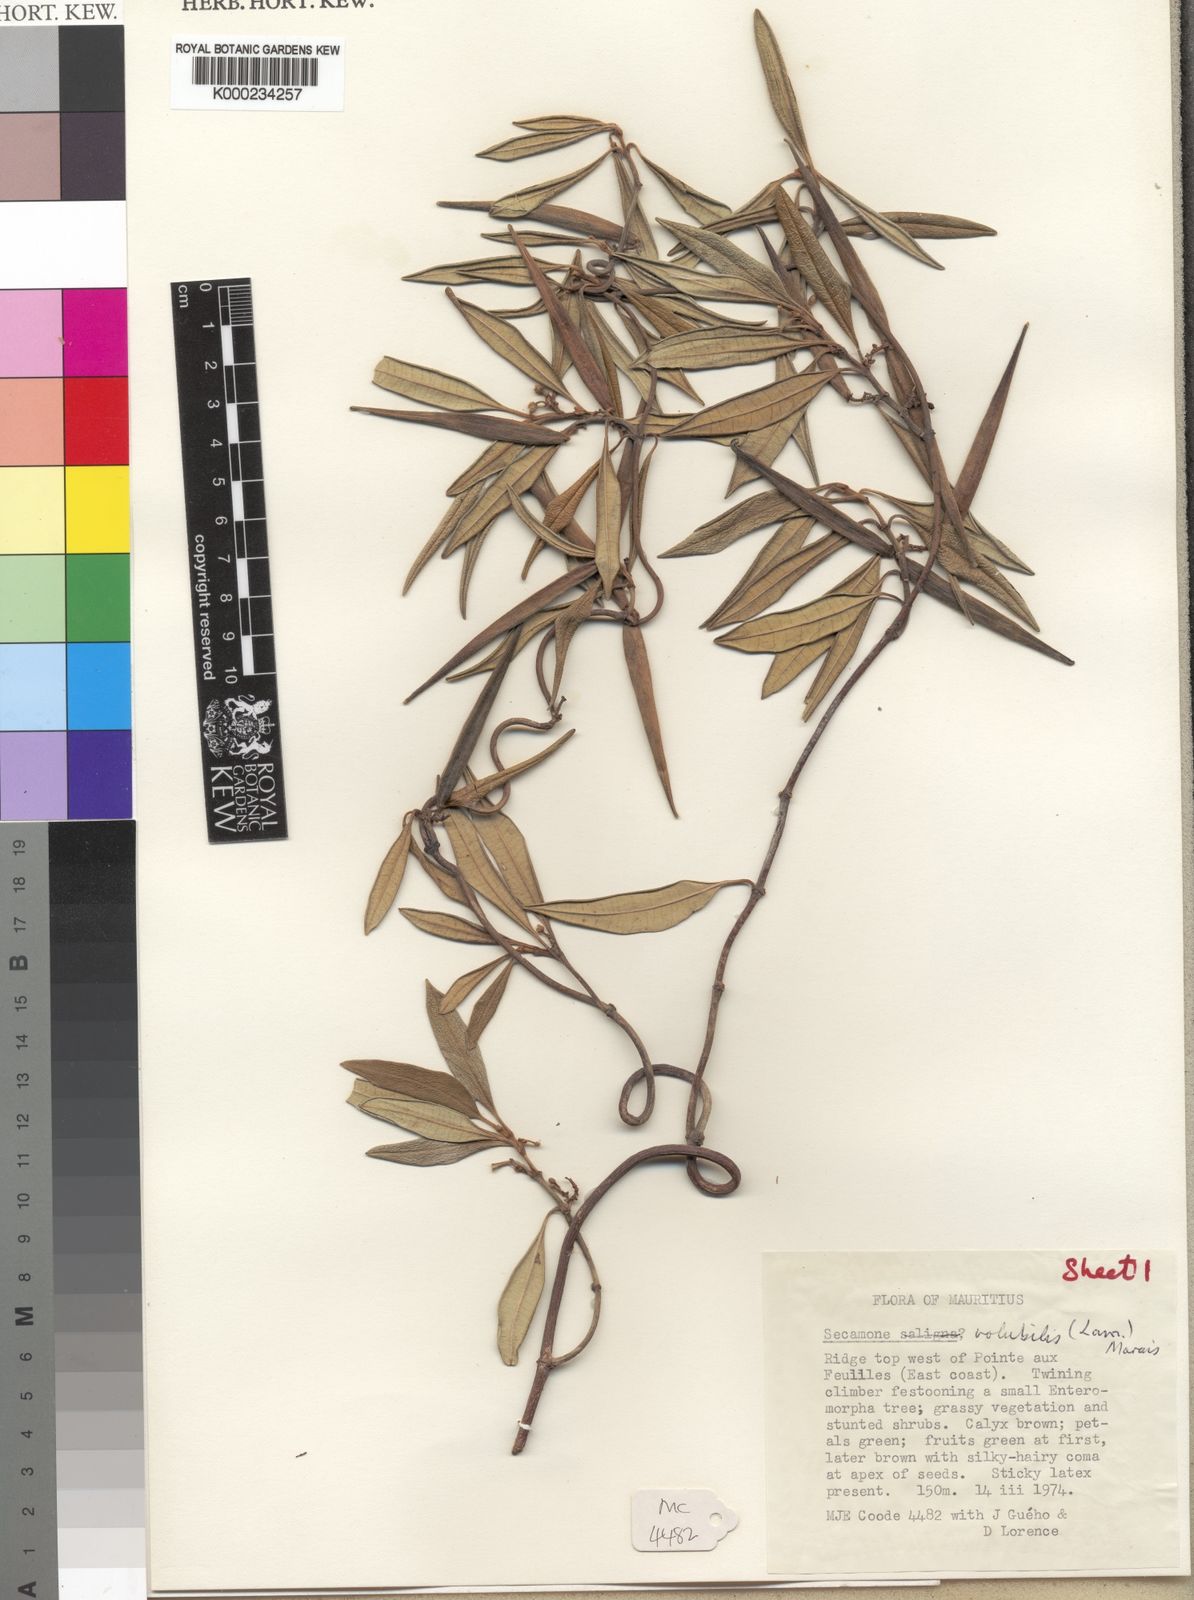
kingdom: Plantae
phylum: Tracheophyta
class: Magnoliopsida
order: Gentianales
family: Apocynaceae
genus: Secamone
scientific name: Secamone volubilis
